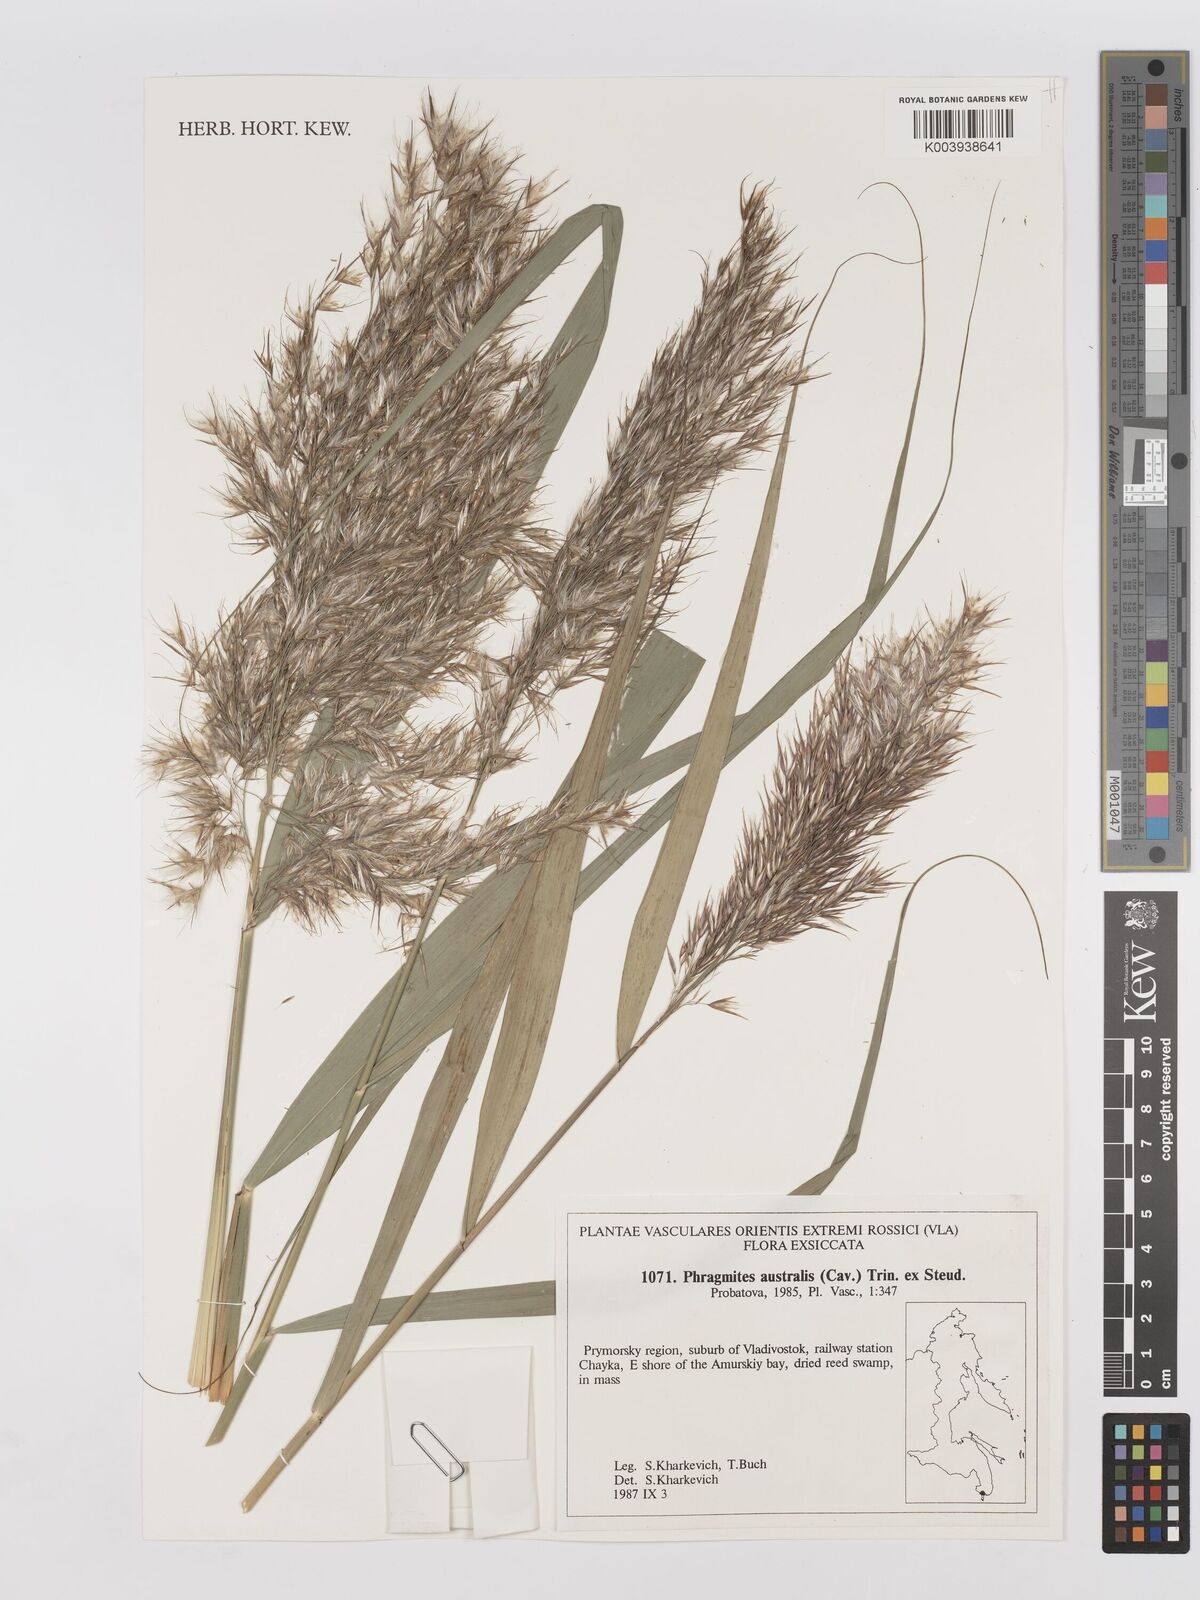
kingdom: Plantae
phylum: Tracheophyta
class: Liliopsida
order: Poales
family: Poaceae
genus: Phragmites
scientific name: Phragmites australis
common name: Common reed
